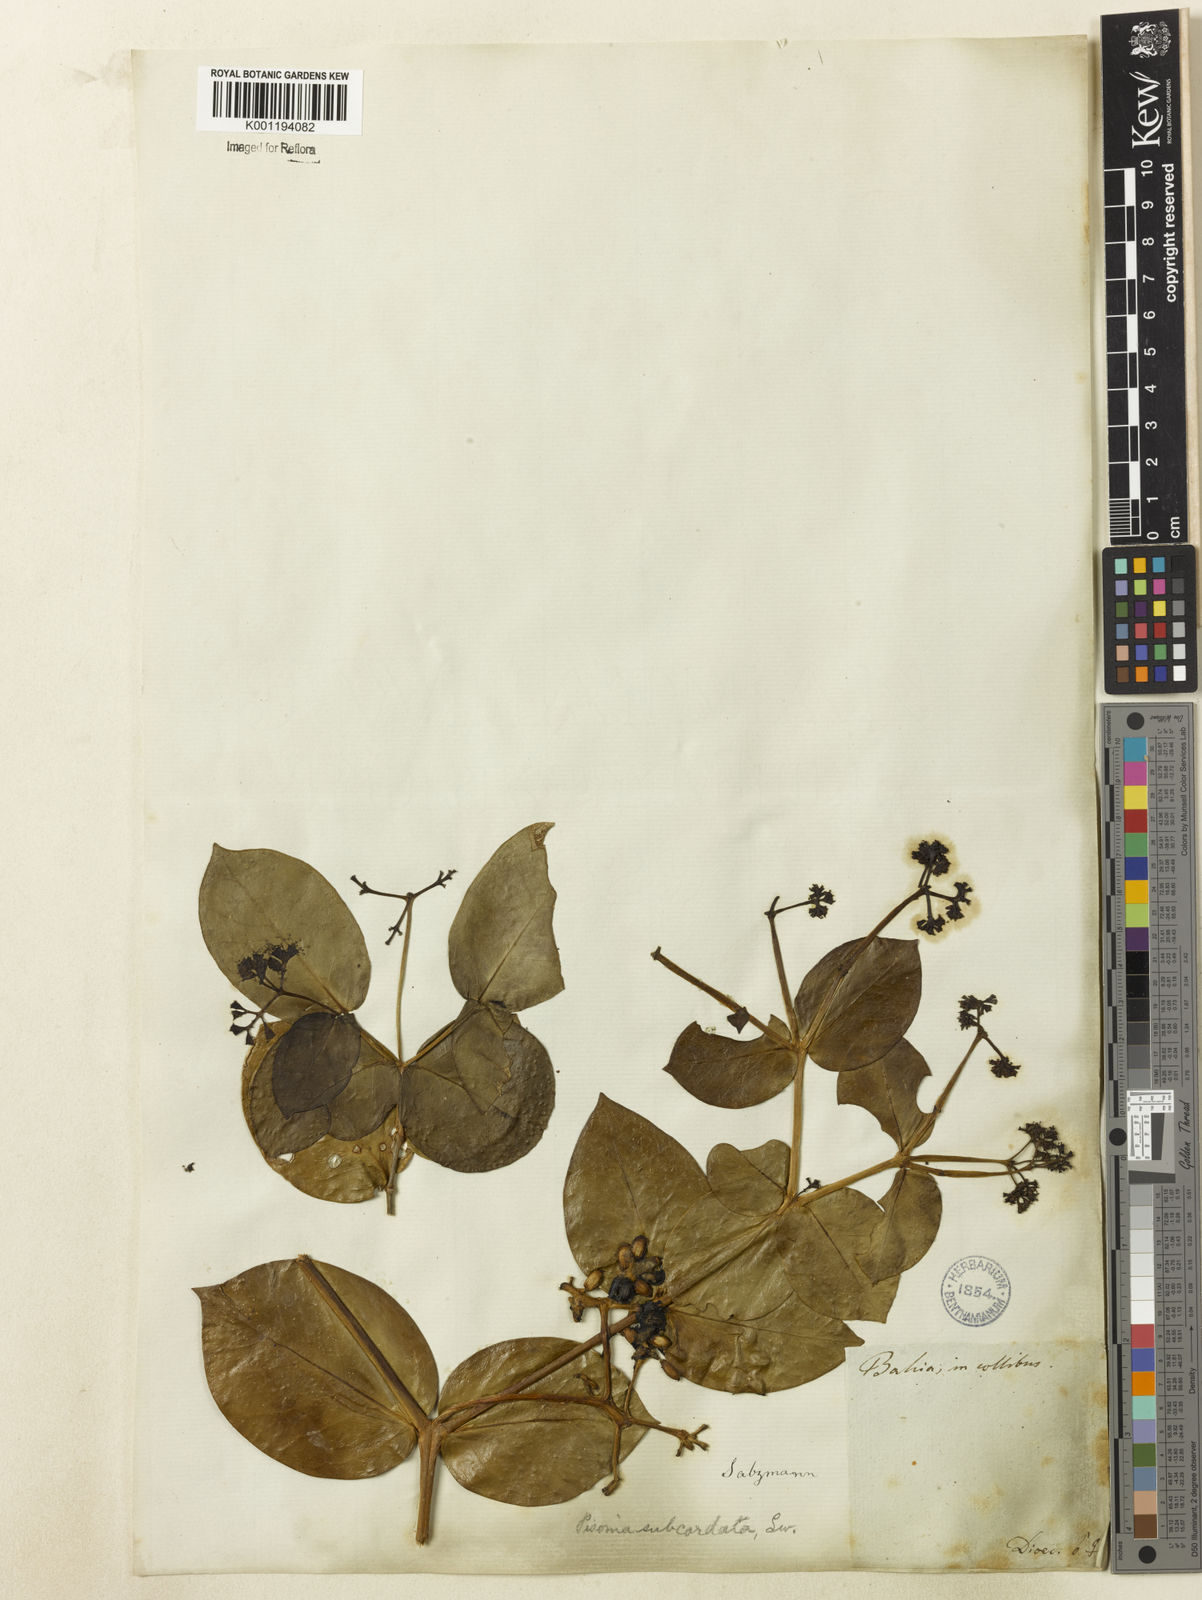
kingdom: Plantae
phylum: Tracheophyta
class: Magnoliopsida
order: Caryophyllales
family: Nyctaginaceae
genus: Guapira
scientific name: Guapira
